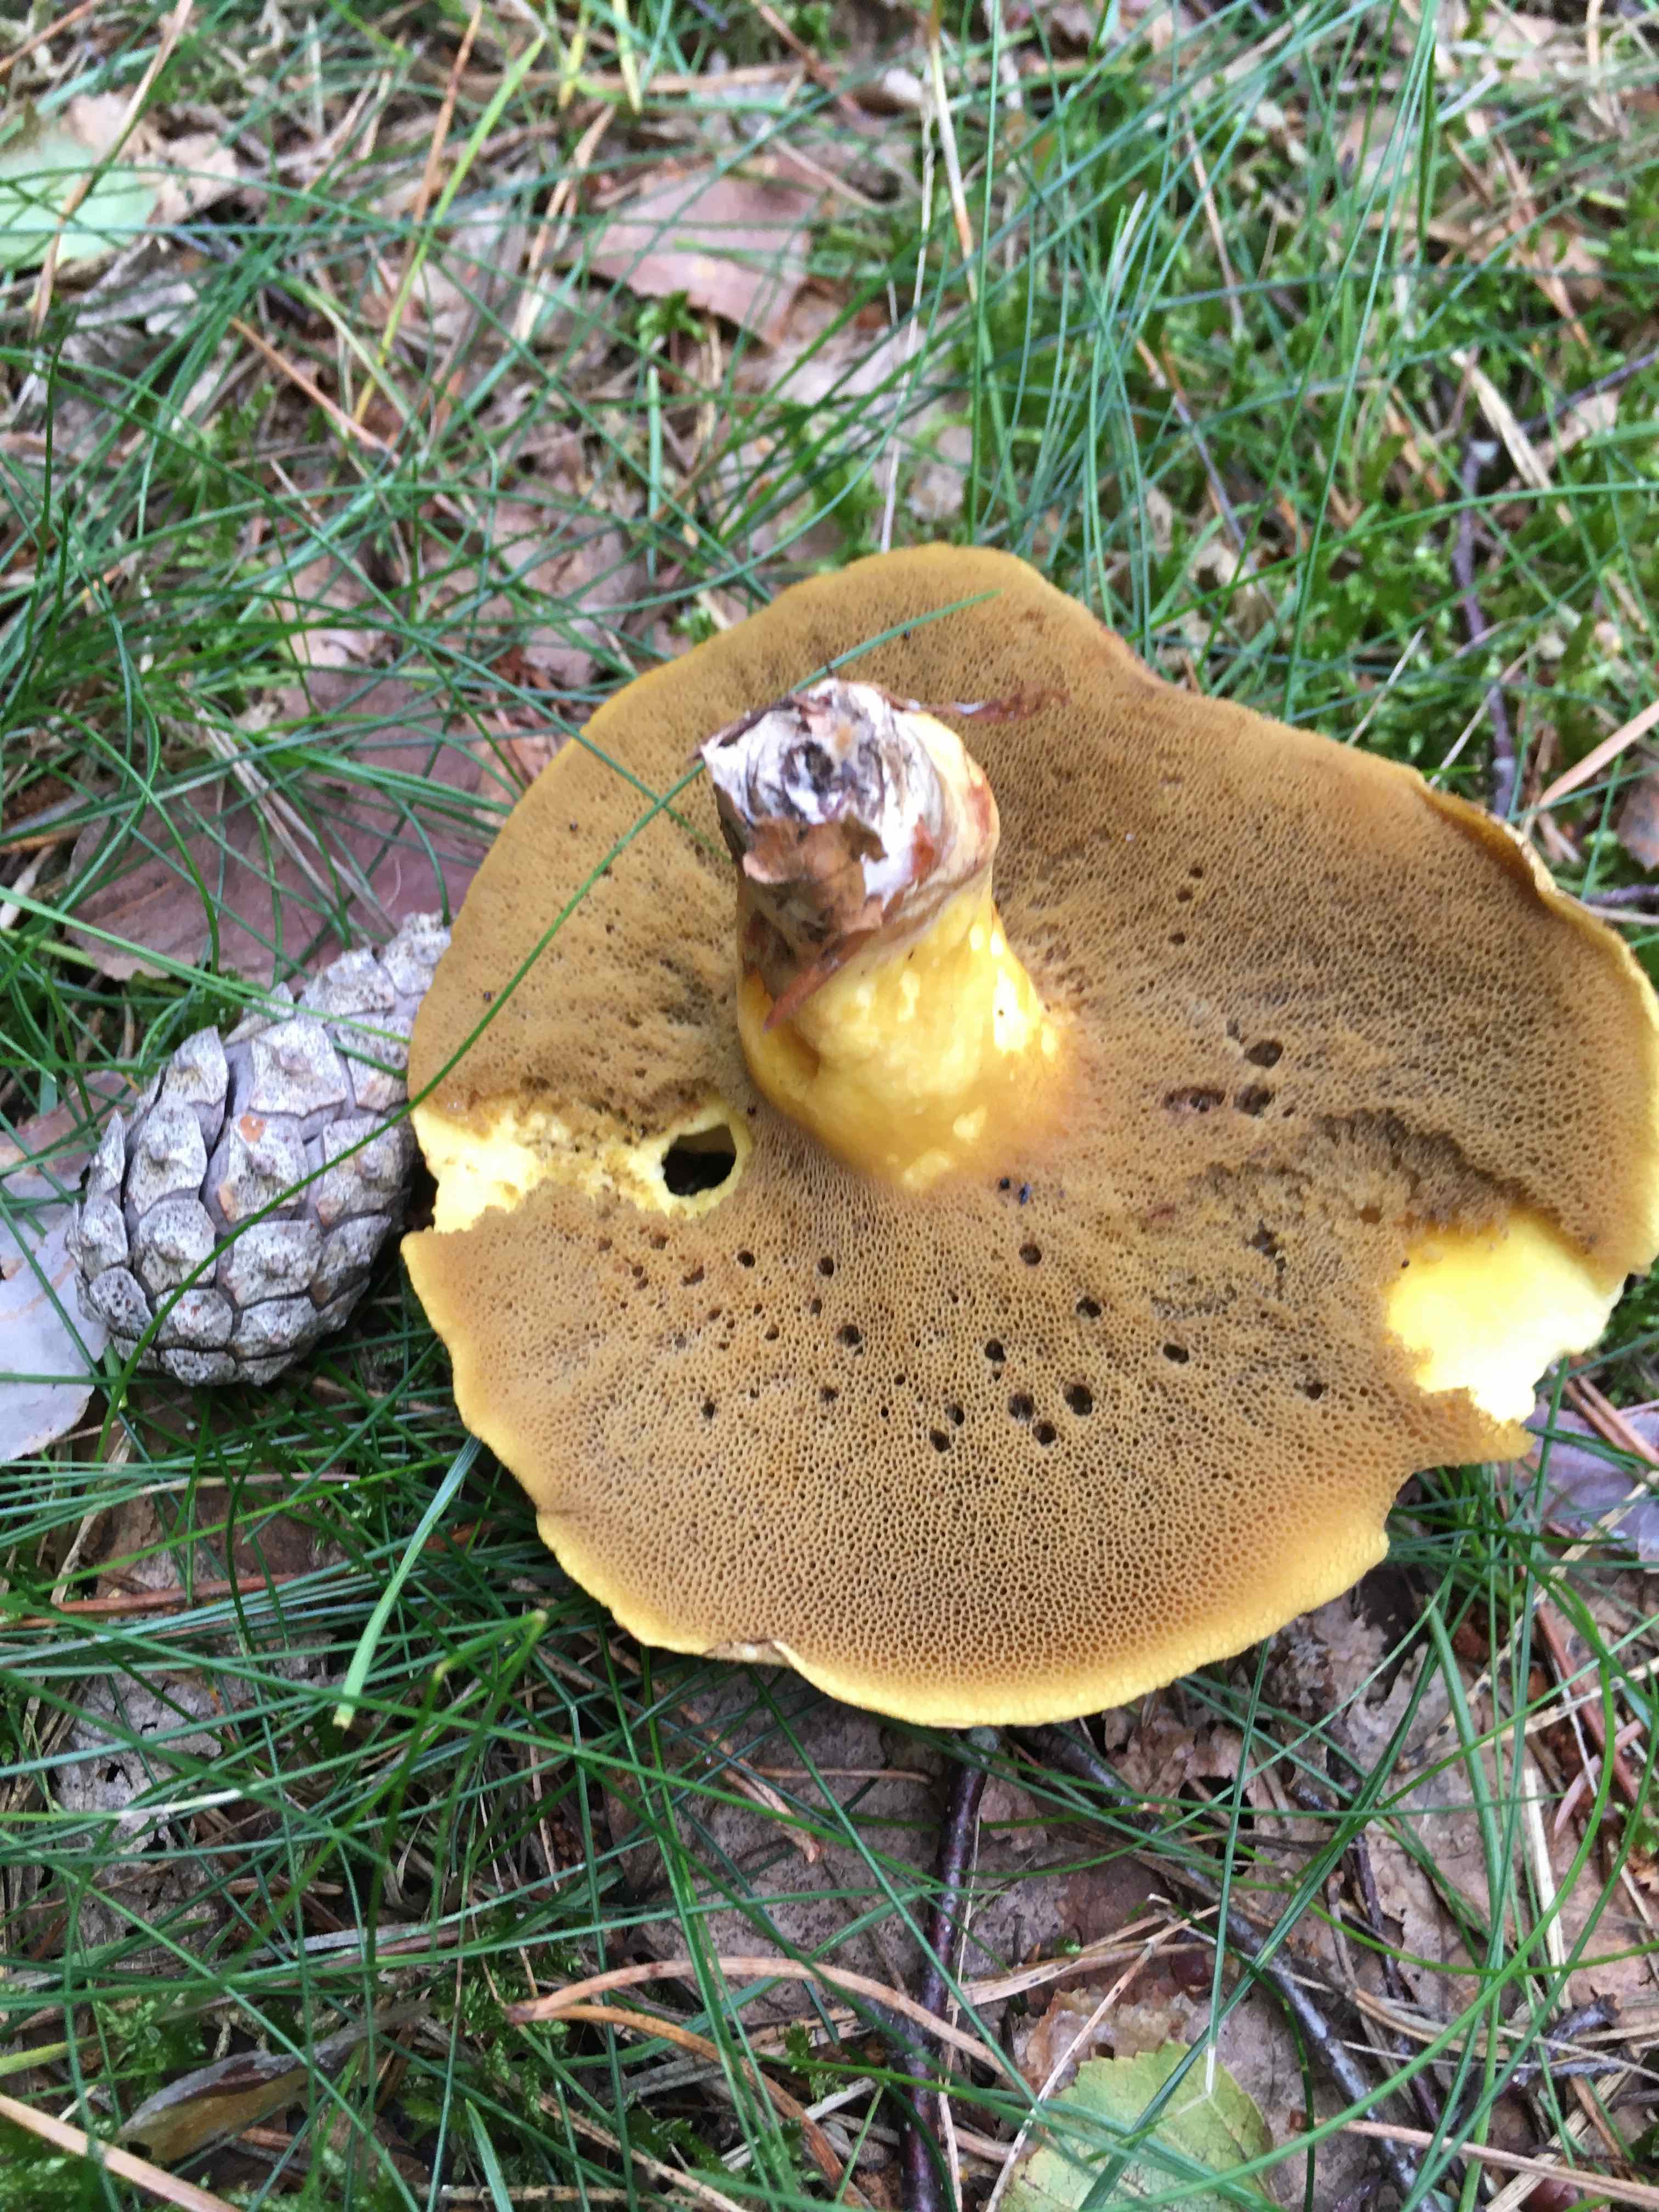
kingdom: Fungi
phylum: Basidiomycota
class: Agaricomycetes
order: Boletales
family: Suillaceae
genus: Suillus
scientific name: Suillus variegatus
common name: broget slimrørhat
